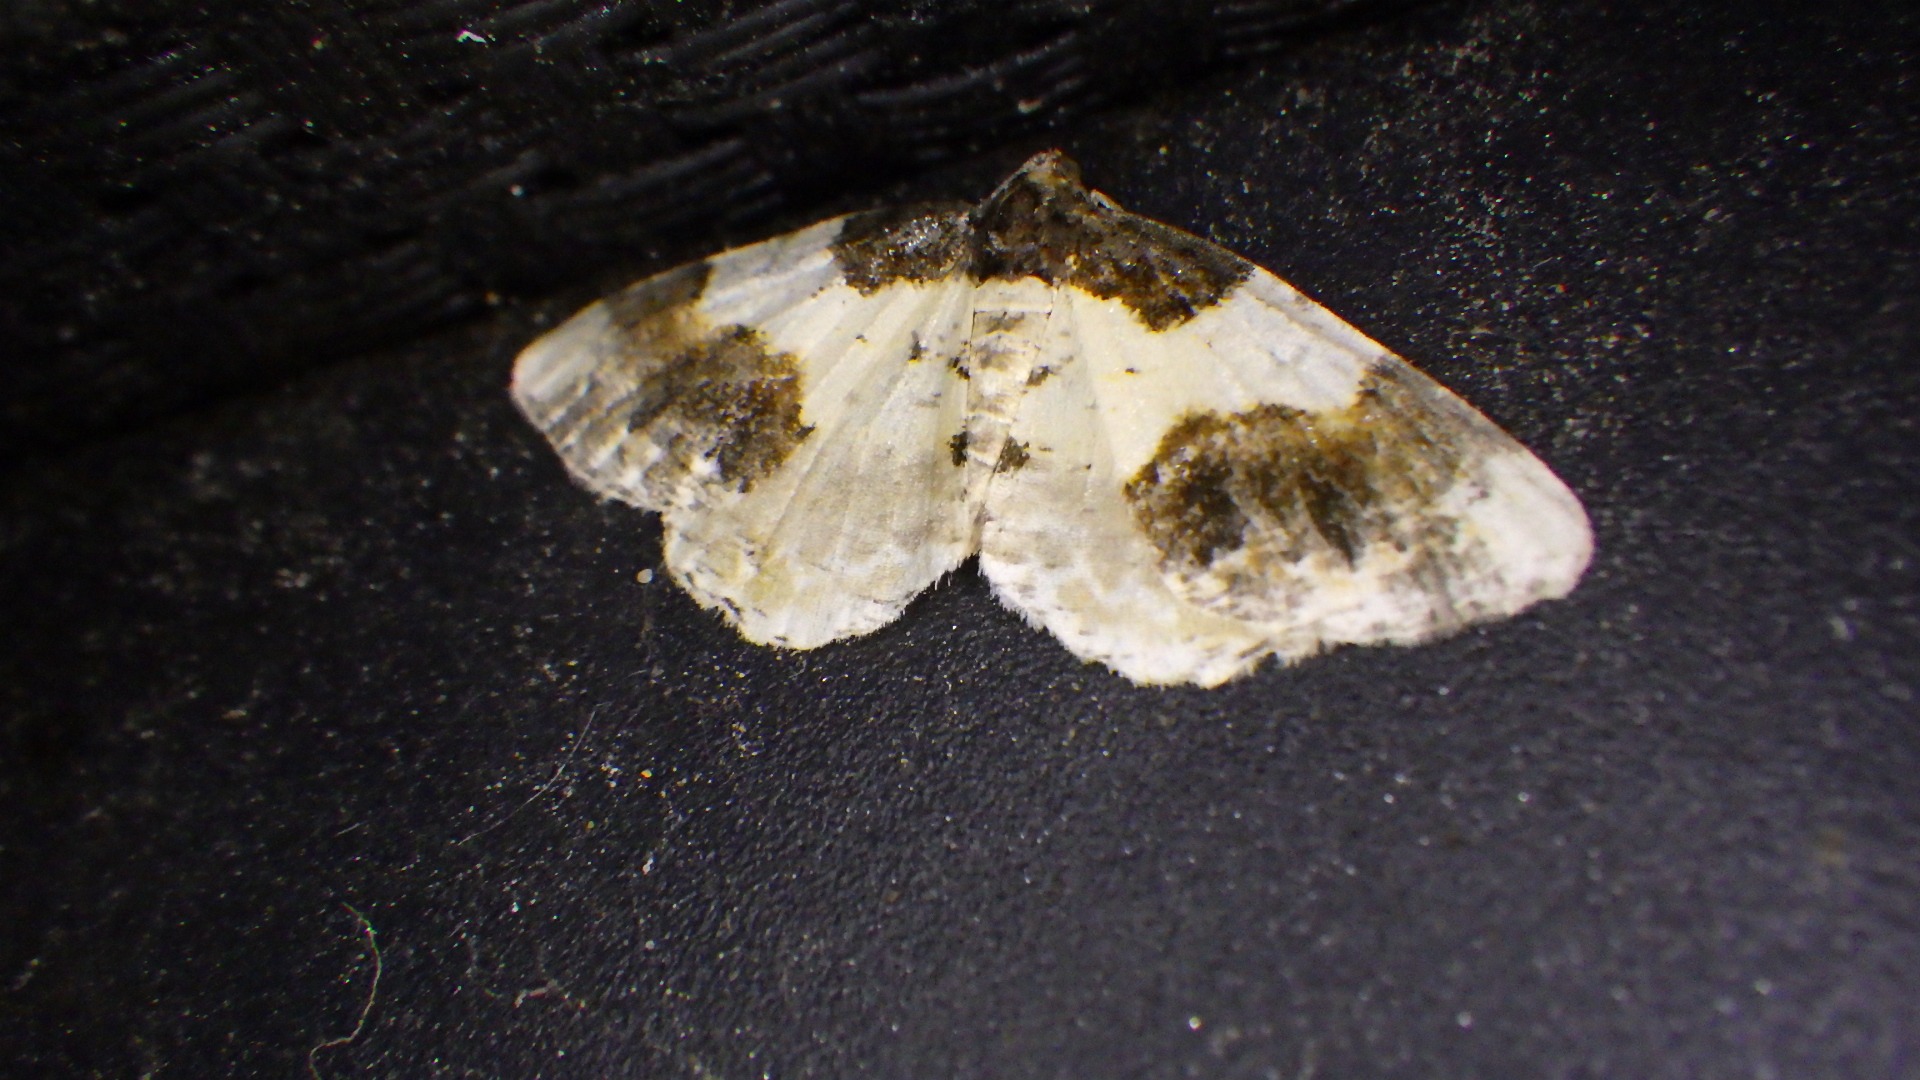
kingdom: Animalia
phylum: Arthropoda
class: Insecta
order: Lepidoptera
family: Geometridae
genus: Ligdia
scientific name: Ligdia adustata
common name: Benvedmåler
